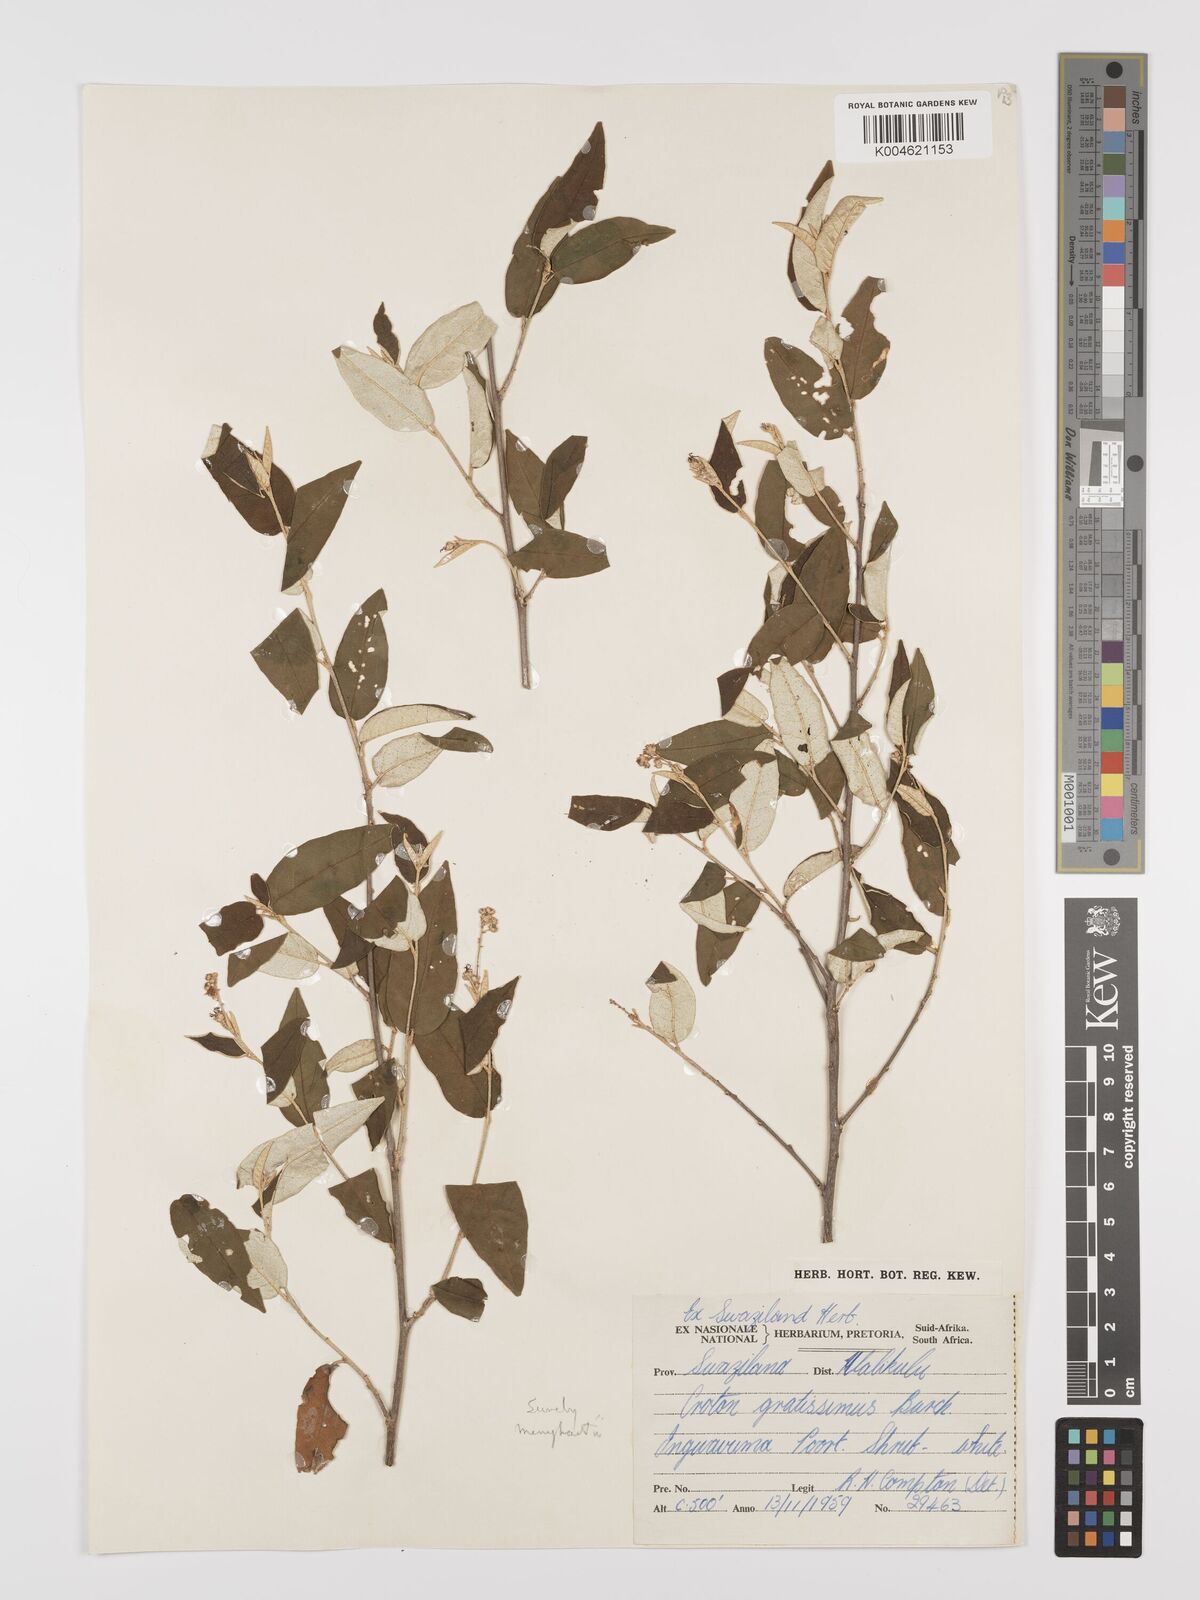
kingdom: Plantae
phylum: Tracheophyta
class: Magnoliopsida
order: Malpighiales
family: Euphorbiaceae
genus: Croton
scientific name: Croton gratissimus
